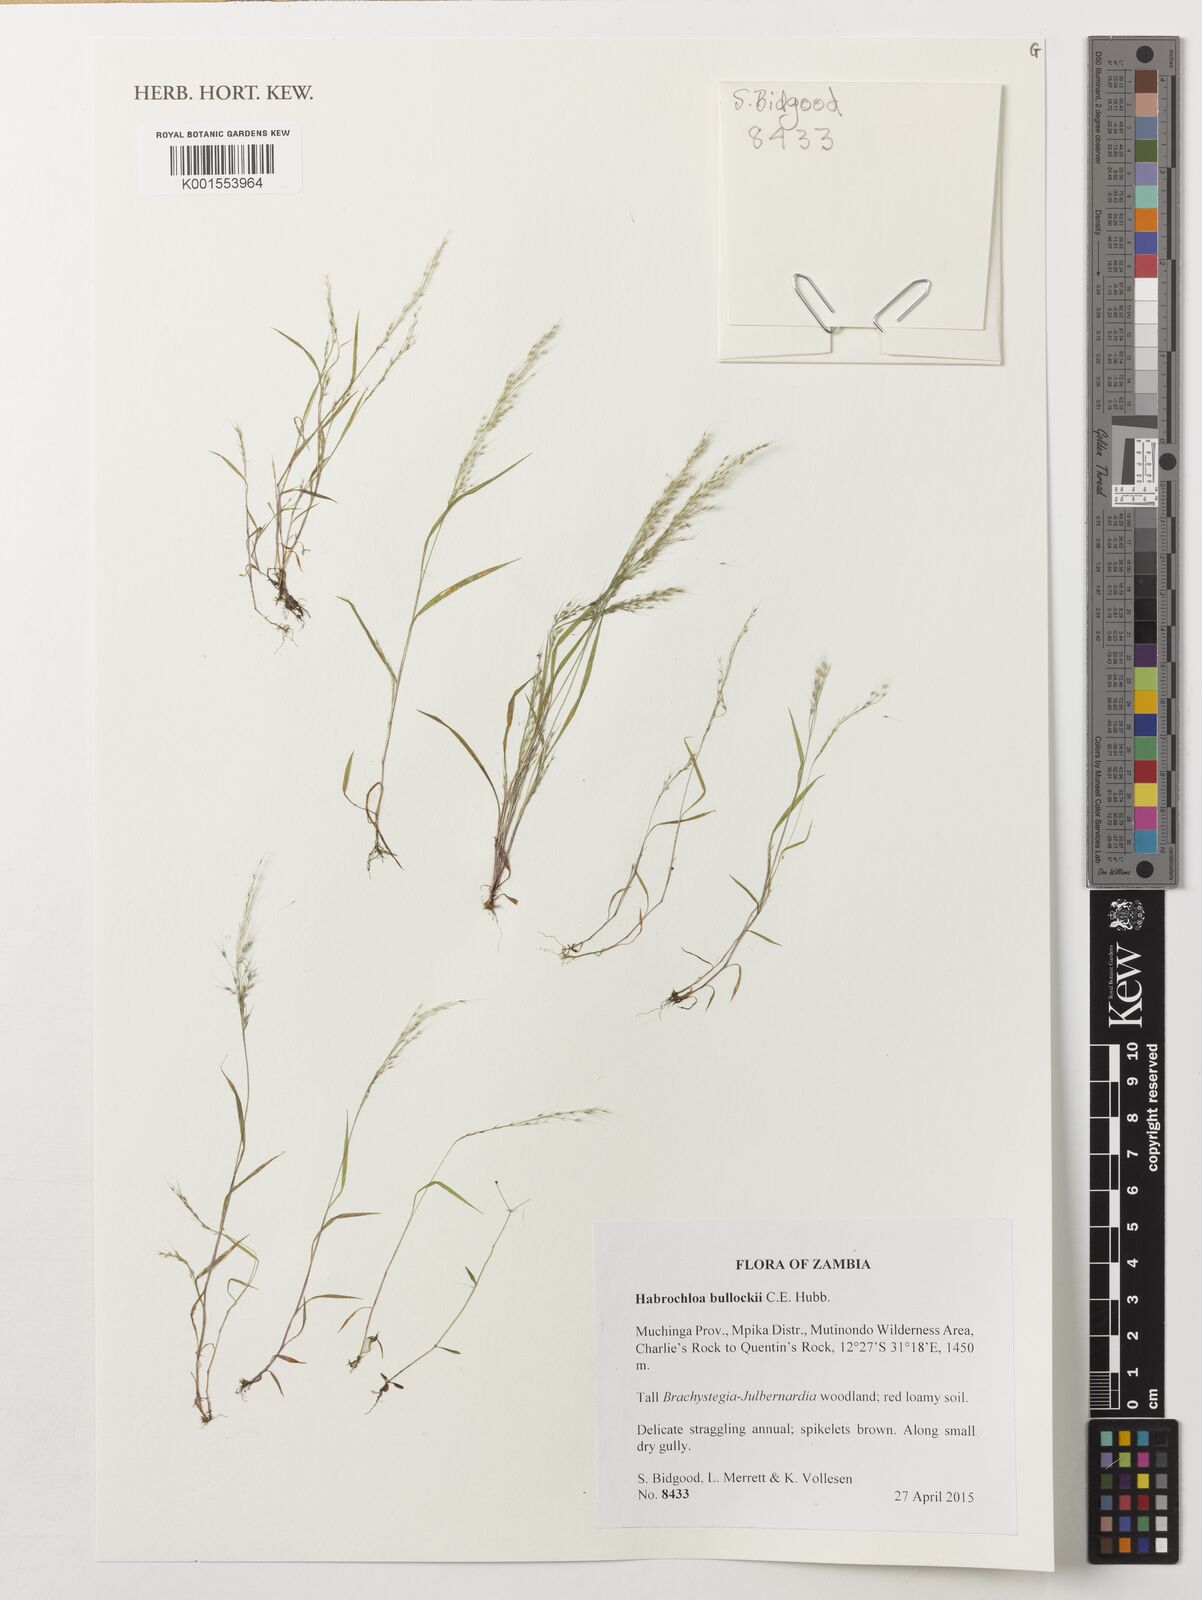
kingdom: Plantae
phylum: Tracheophyta
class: Liliopsida
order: Poales
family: Poaceae
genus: Habrochloa
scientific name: Habrochloa bullockii
